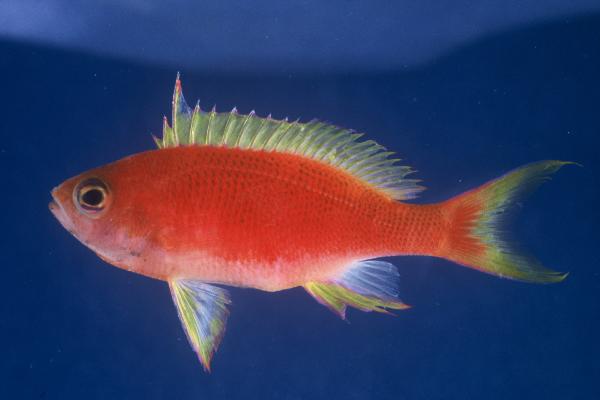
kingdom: Animalia
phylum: Chordata
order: Perciformes
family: Serranidae
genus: Pseudanthias
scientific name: Pseudanthias pulcherrimus
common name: Resplendent goldie
